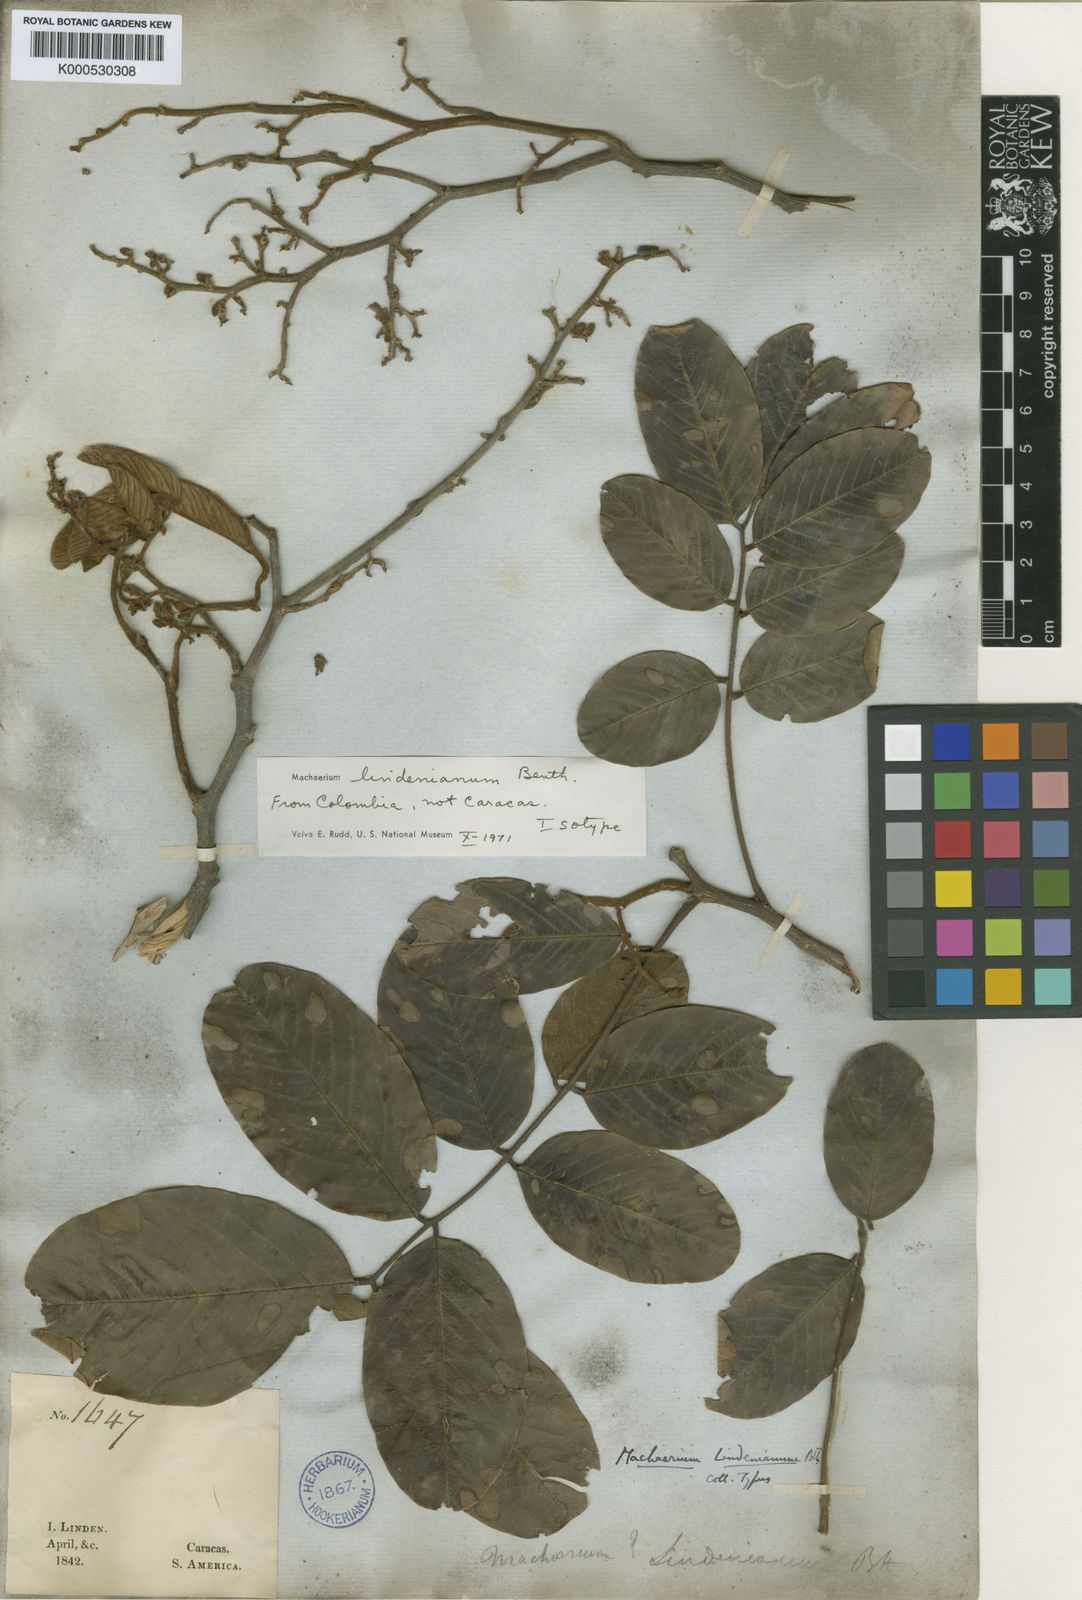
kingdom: Plantae
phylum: Tracheophyta
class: Magnoliopsida
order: Fabales
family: Fabaceae
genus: Machaerium
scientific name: Machaerium lindenianum
